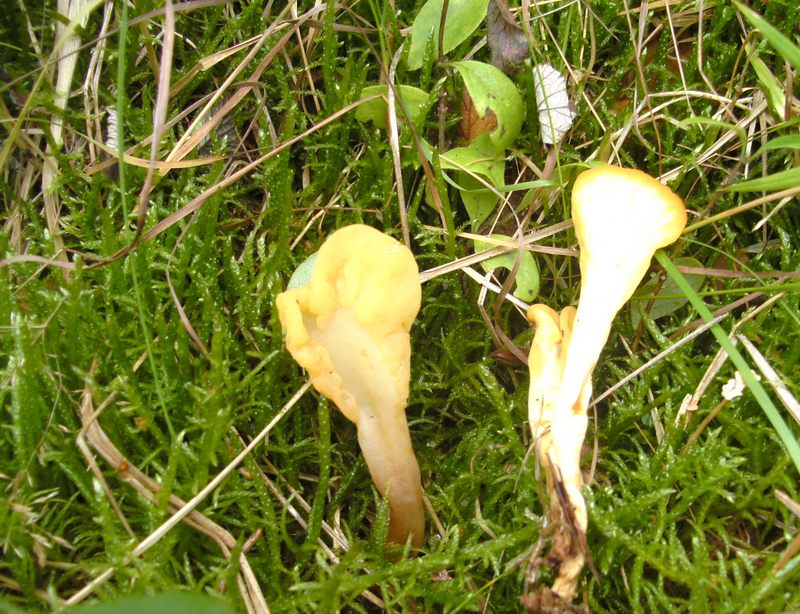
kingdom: Fungi
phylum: Ascomycota
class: Leotiomycetes
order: Rhytismatales
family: Cudoniaceae
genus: Spathularia
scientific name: Spathularia flavida
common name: gul spatelsvamp
